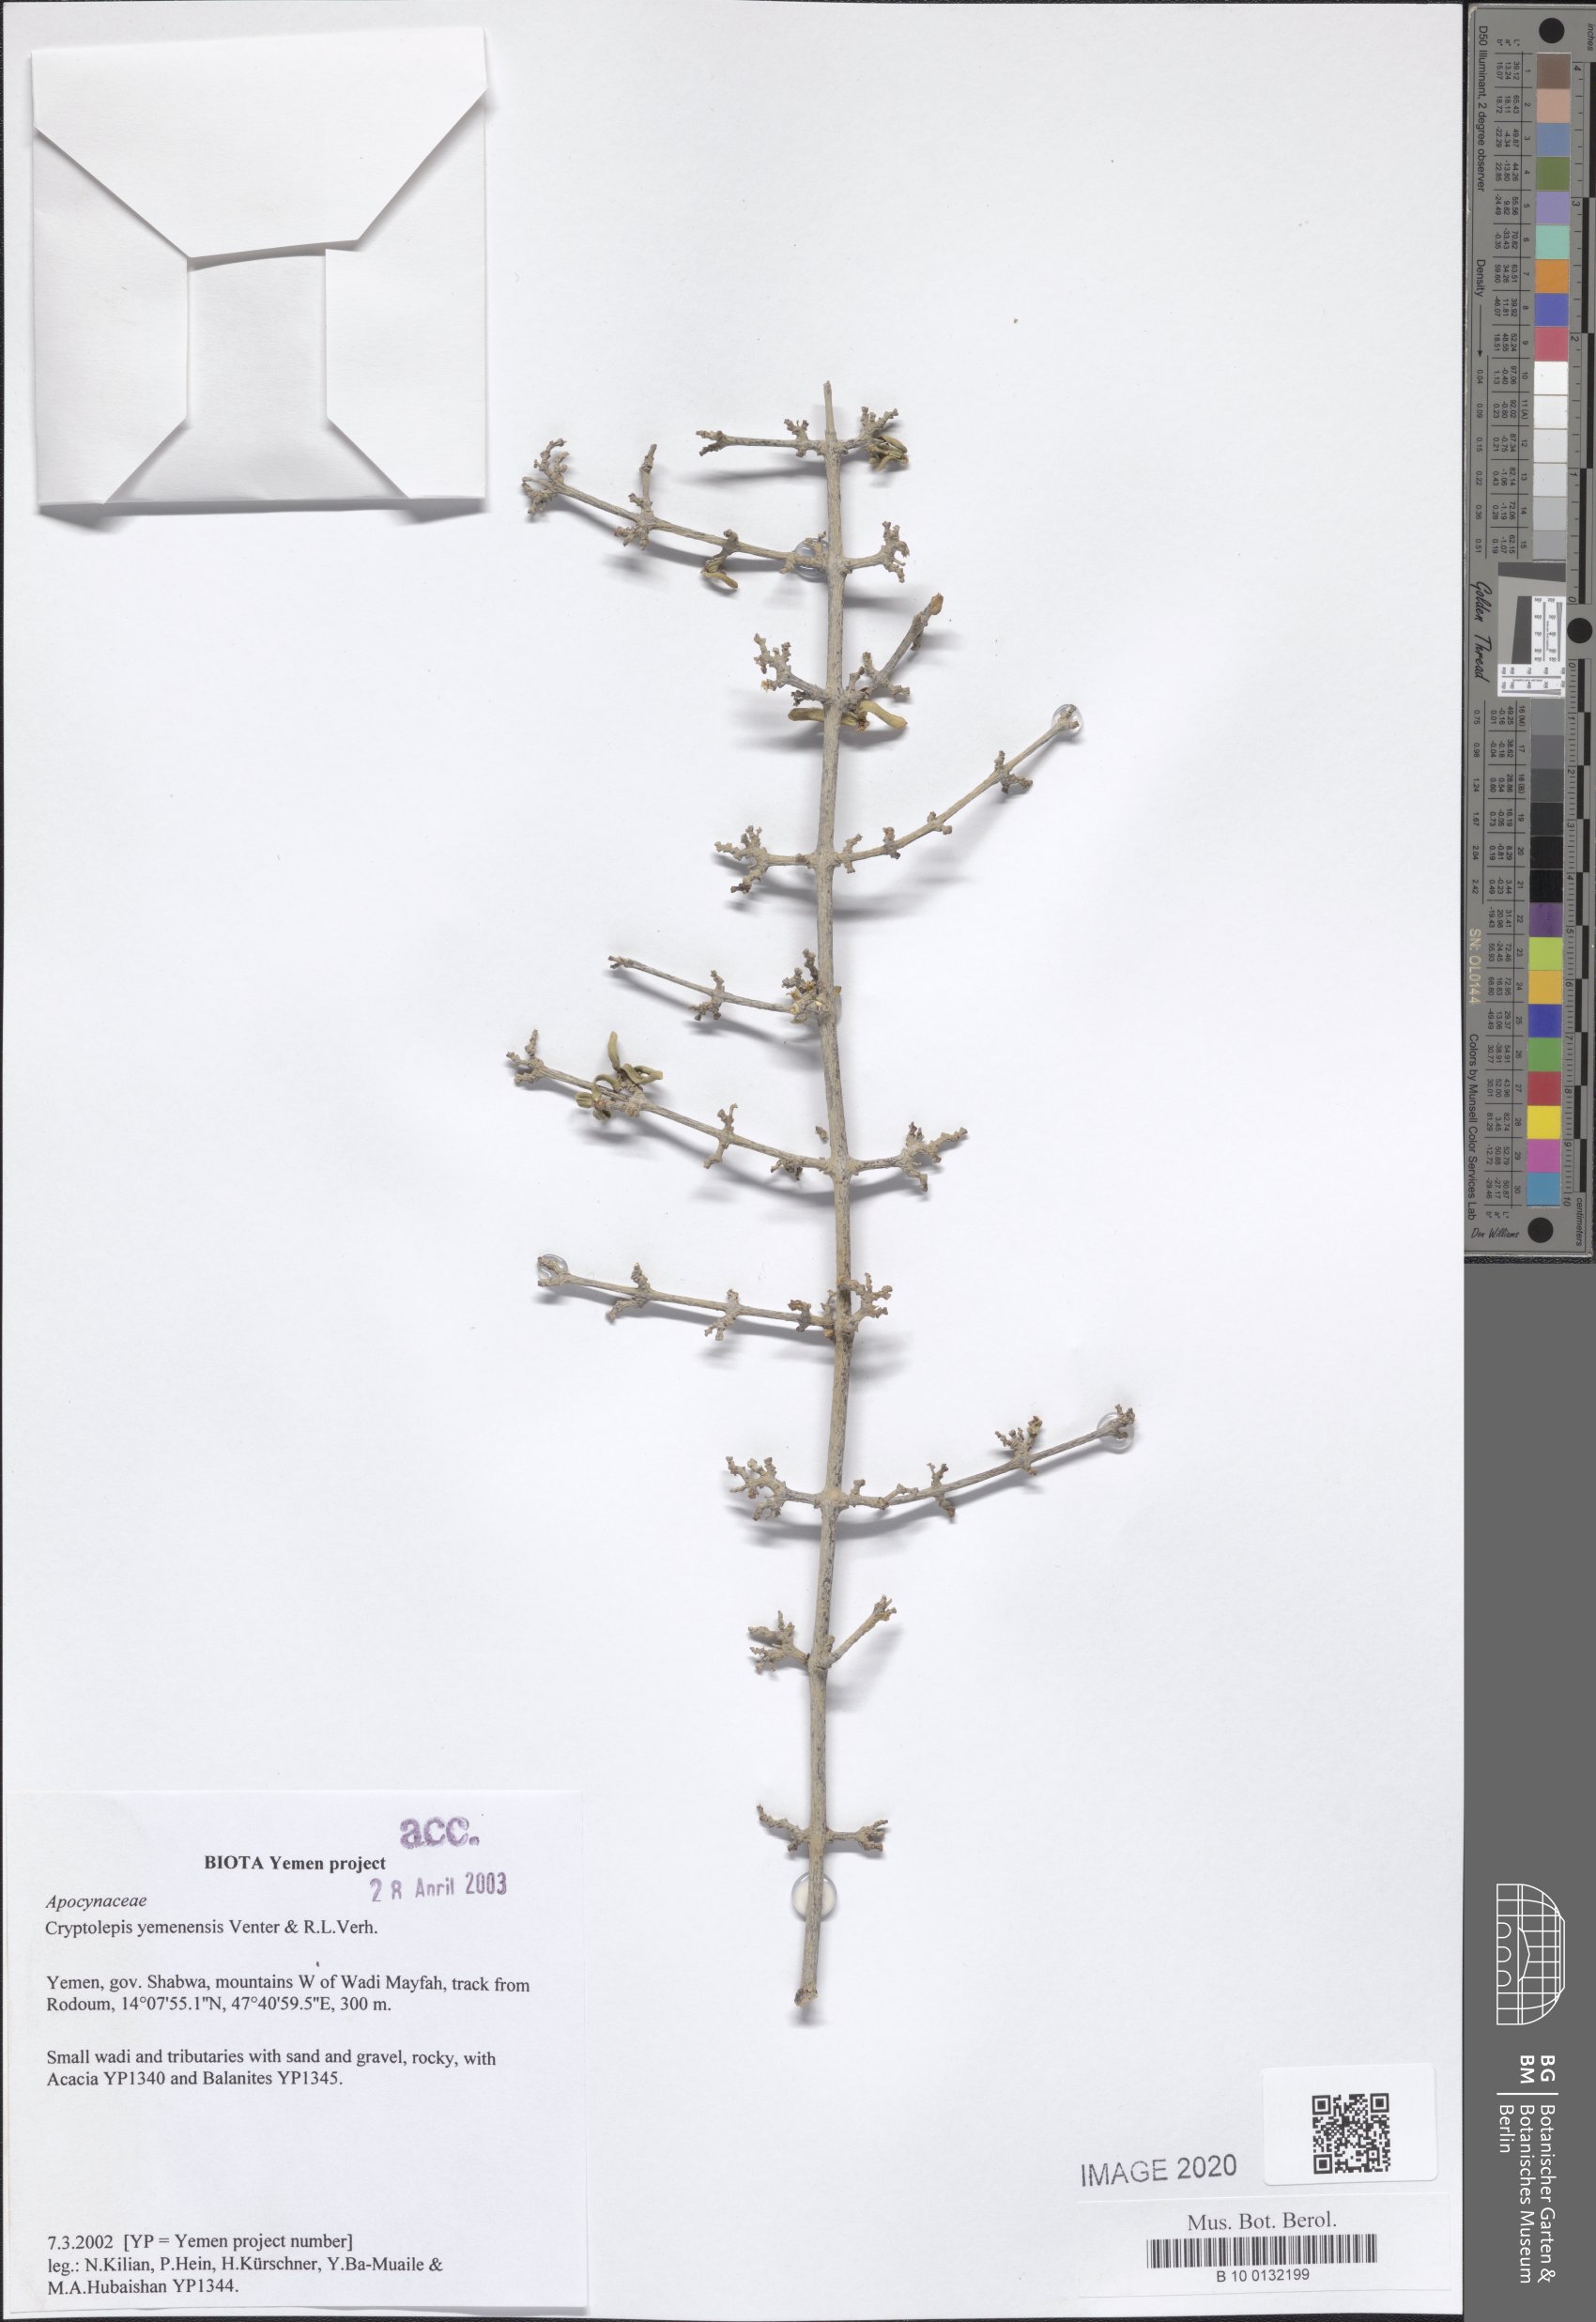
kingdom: Plantae
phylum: Tracheophyta
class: Magnoliopsida
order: Gentianales
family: Apocynaceae
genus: Cryptolepis
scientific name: Cryptolepis yemenensis
